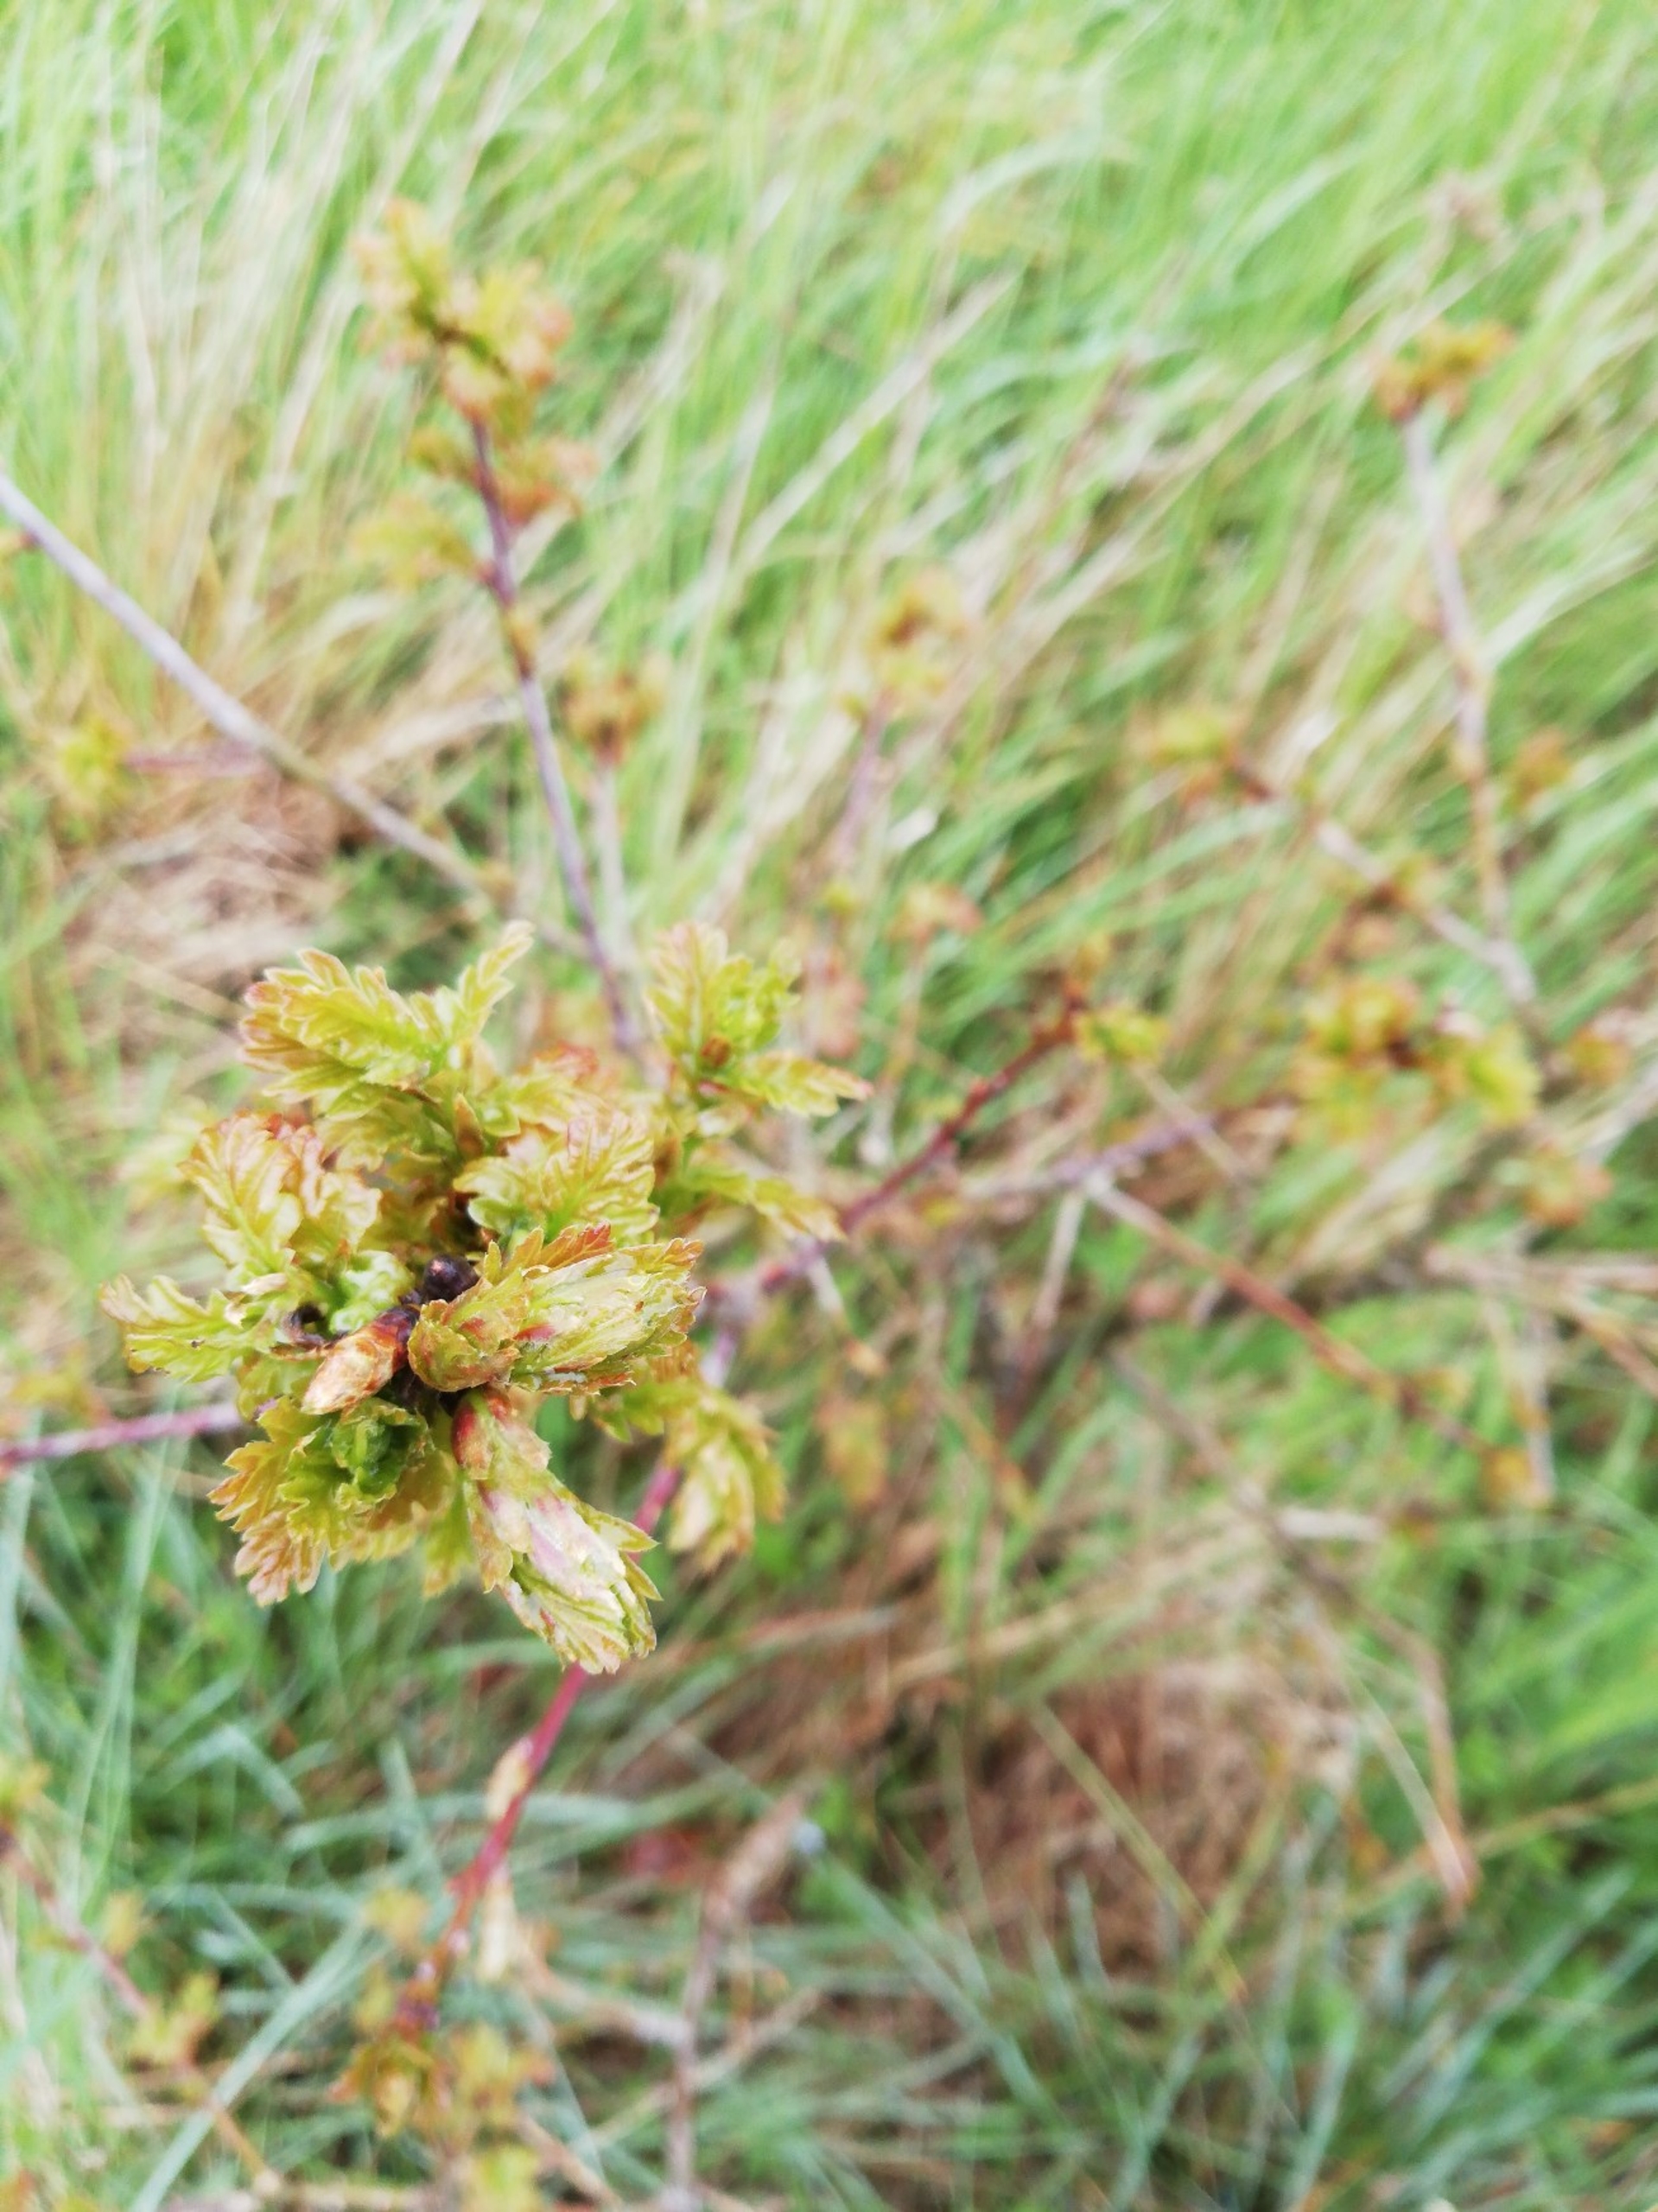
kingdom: Plantae
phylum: Tracheophyta
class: Magnoliopsida
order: Fagales
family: Fagaceae
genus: Quercus
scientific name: Quercus robur
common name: Stilk-eg/almindelig eg
